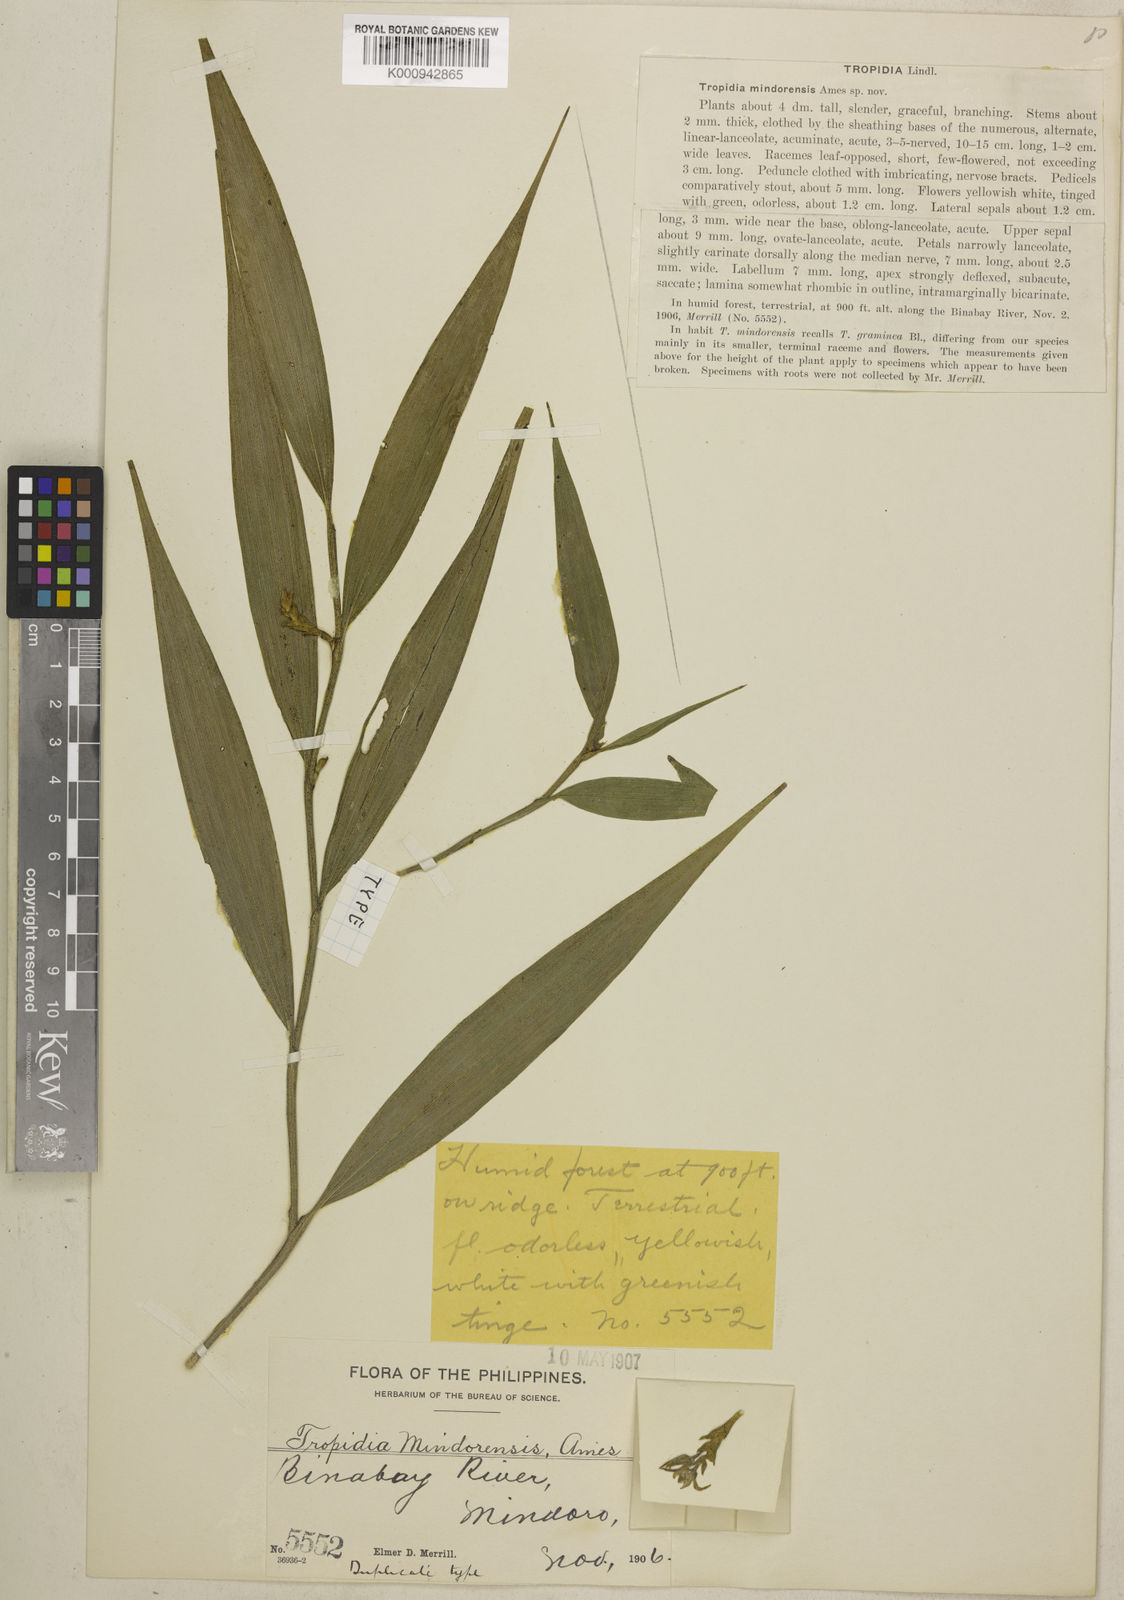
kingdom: Plantae
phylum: Tracheophyta
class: Liliopsida
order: Asparagales
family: Orchidaceae
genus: Tropidia
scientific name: Tropidia mindorensis
